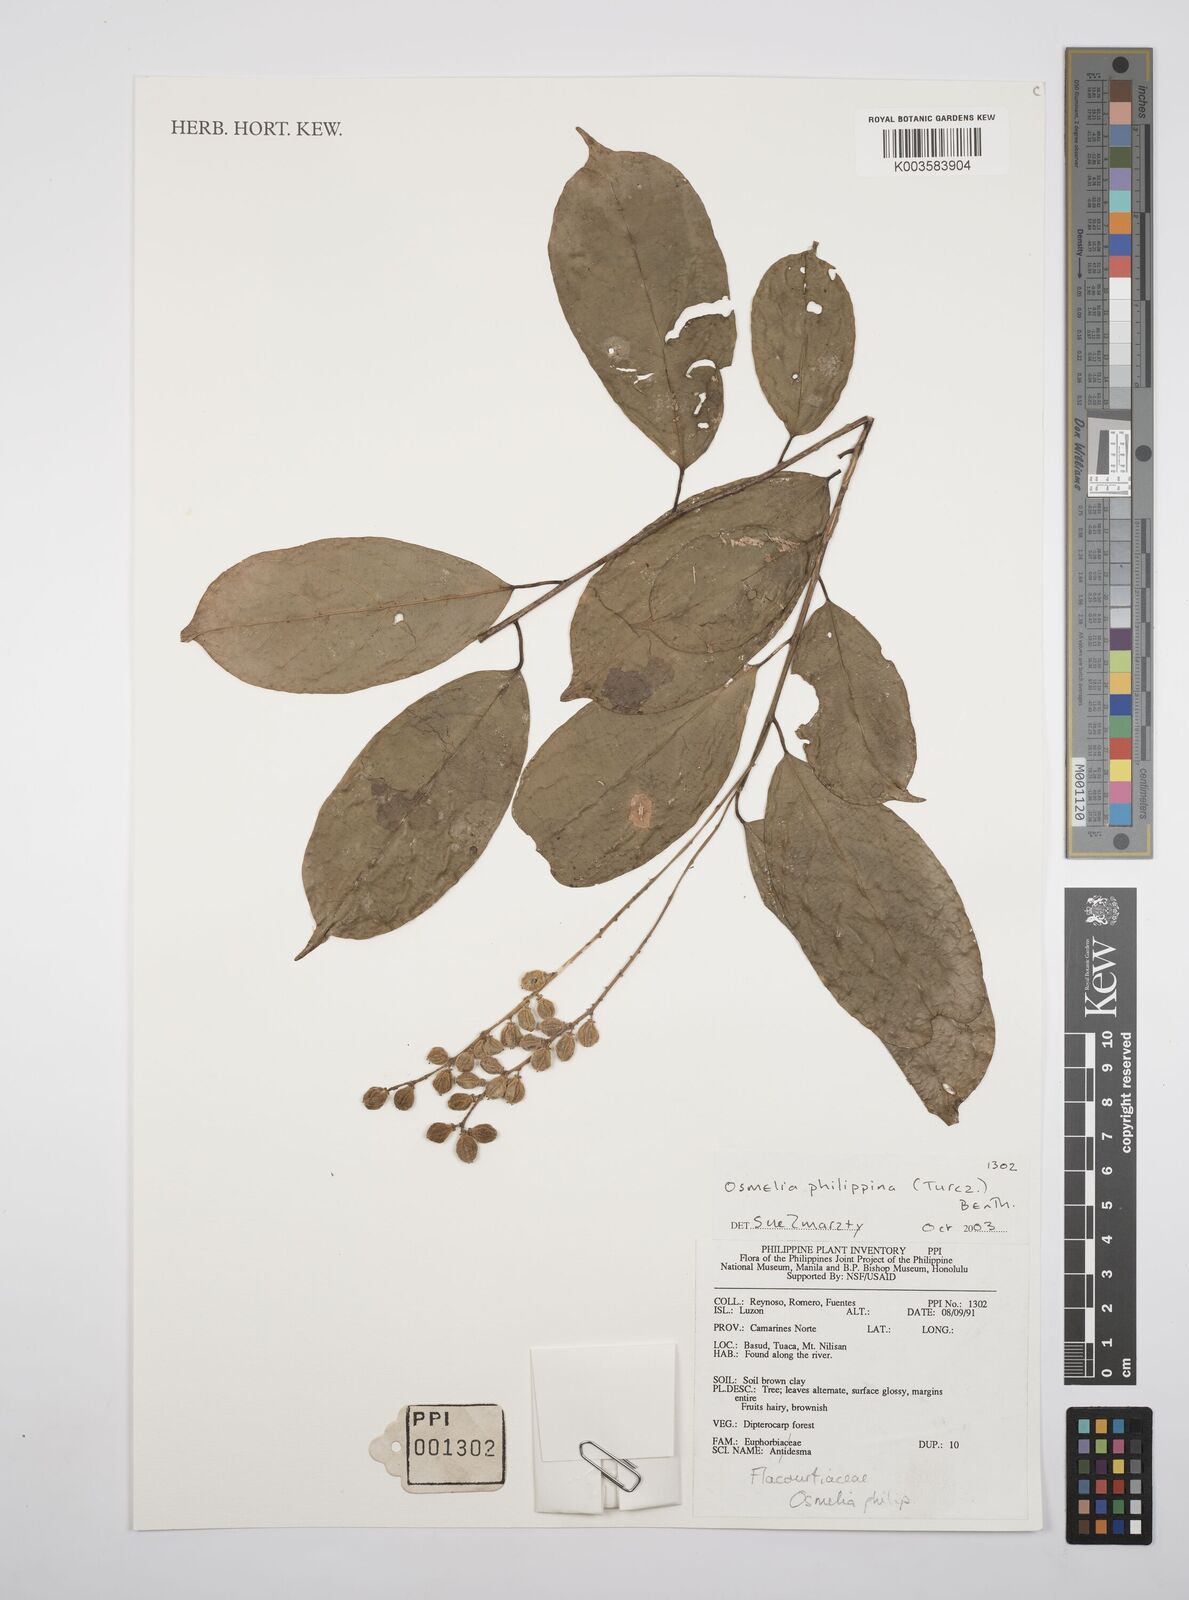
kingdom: Plantae
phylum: Tracheophyta
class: Magnoliopsida
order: Malpighiales
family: Salicaceae
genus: Osmelia
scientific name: Osmelia philippina
